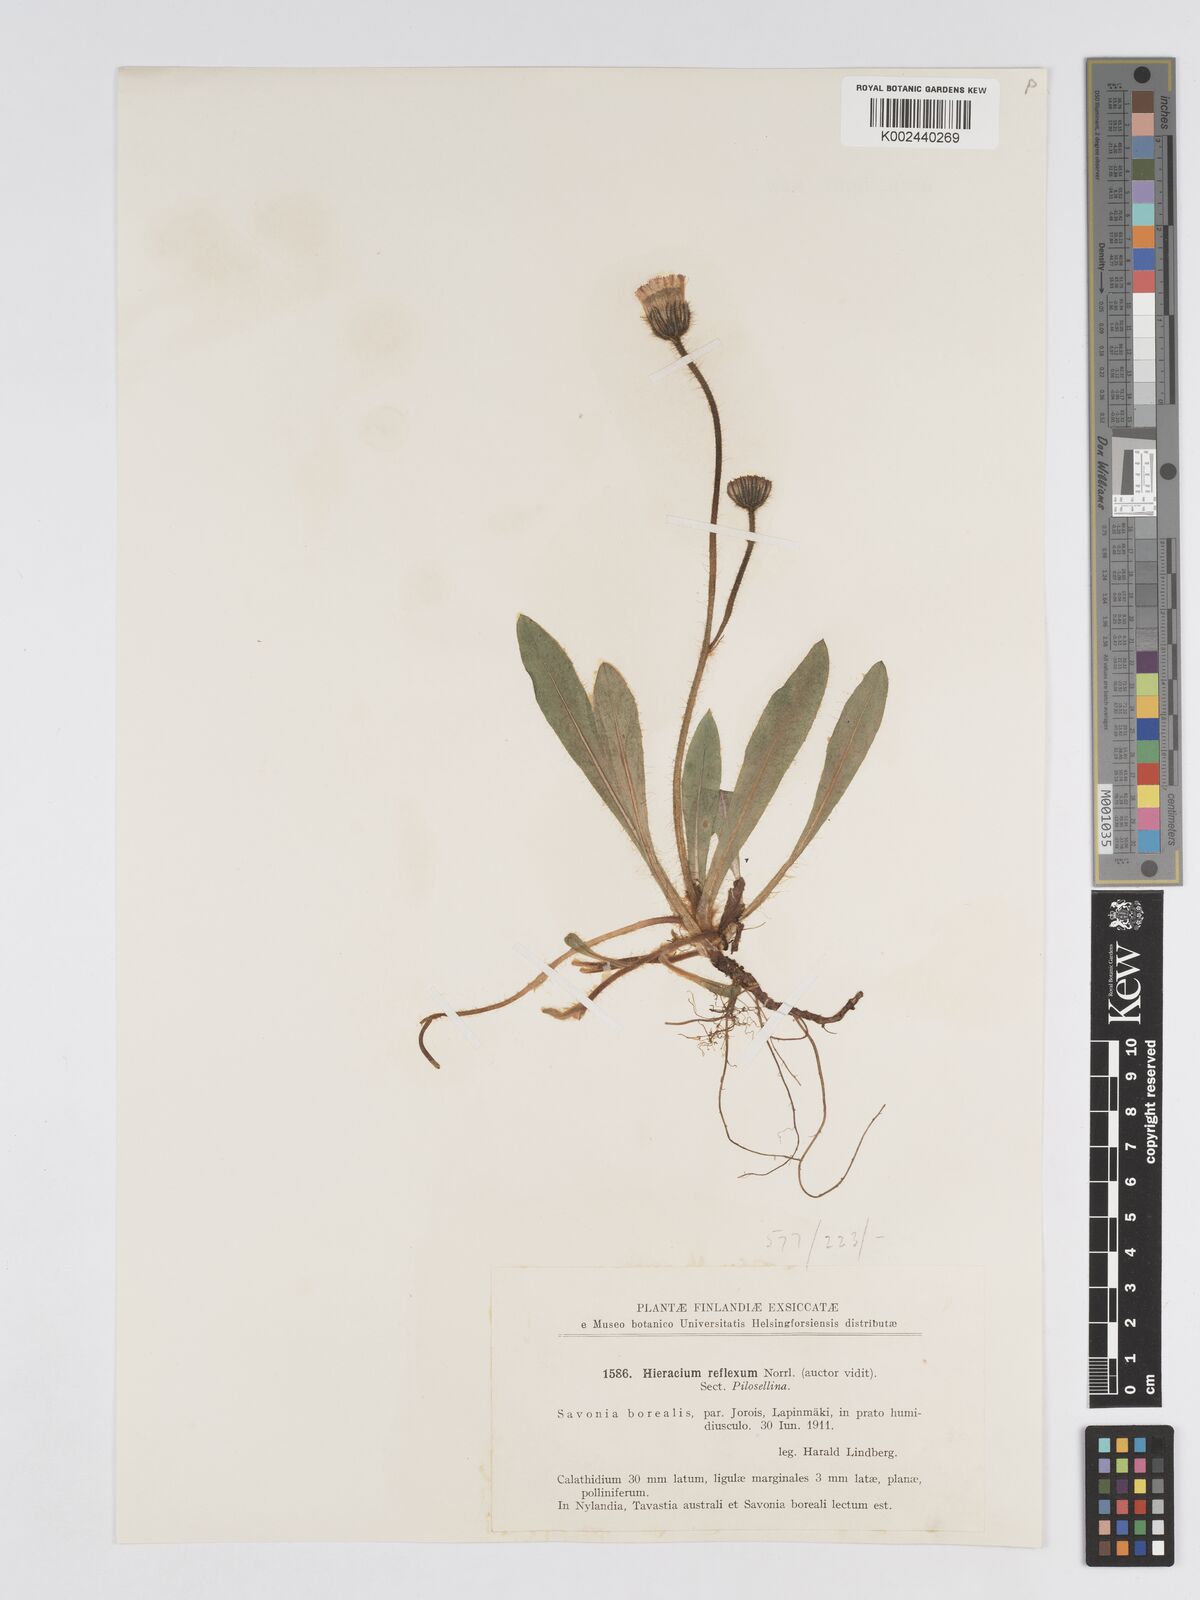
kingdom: Plantae
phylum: Tracheophyta
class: Magnoliopsida
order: Asterales
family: Asteraceae
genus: Hieracium
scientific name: Hieracium
